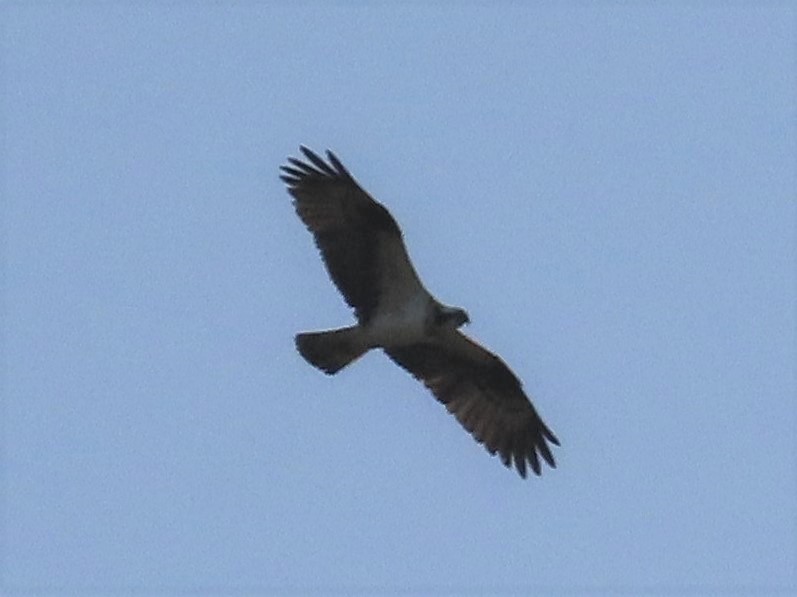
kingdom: Animalia
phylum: Chordata
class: Aves
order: Accipitriformes
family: Pandionidae
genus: Pandion
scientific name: Pandion haliaetus
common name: Fiskeørn
